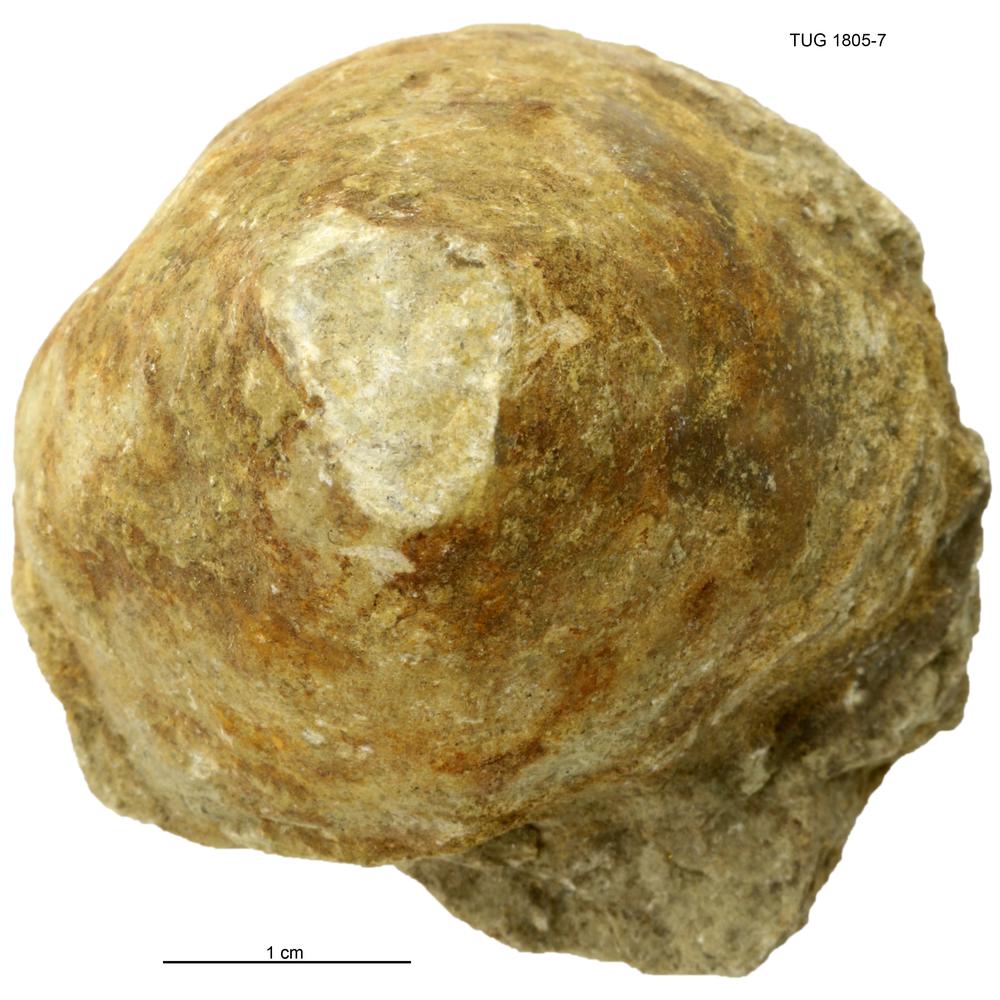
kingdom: Animalia
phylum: Mollusca
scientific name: Mollusca
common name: Mollusca
